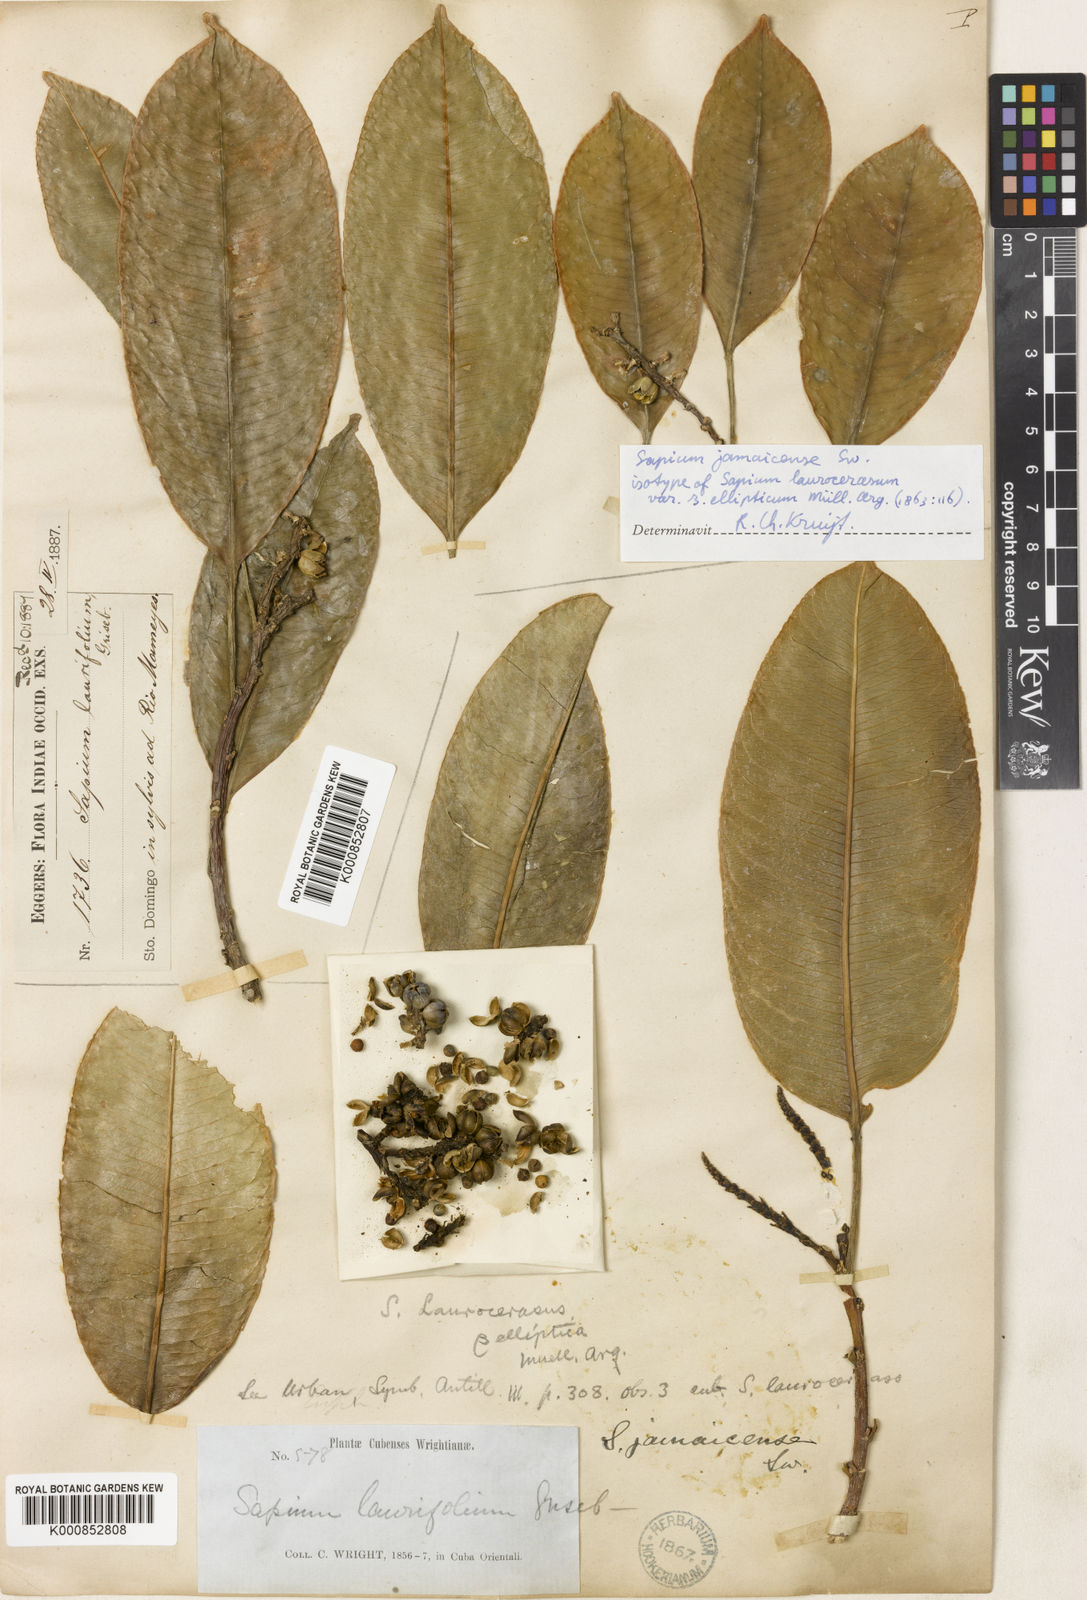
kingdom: Plantae
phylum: Tracheophyta
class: Magnoliopsida
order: Malpighiales
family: Euphorbiaceae
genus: Sapium
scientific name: Sapium laurifolium
